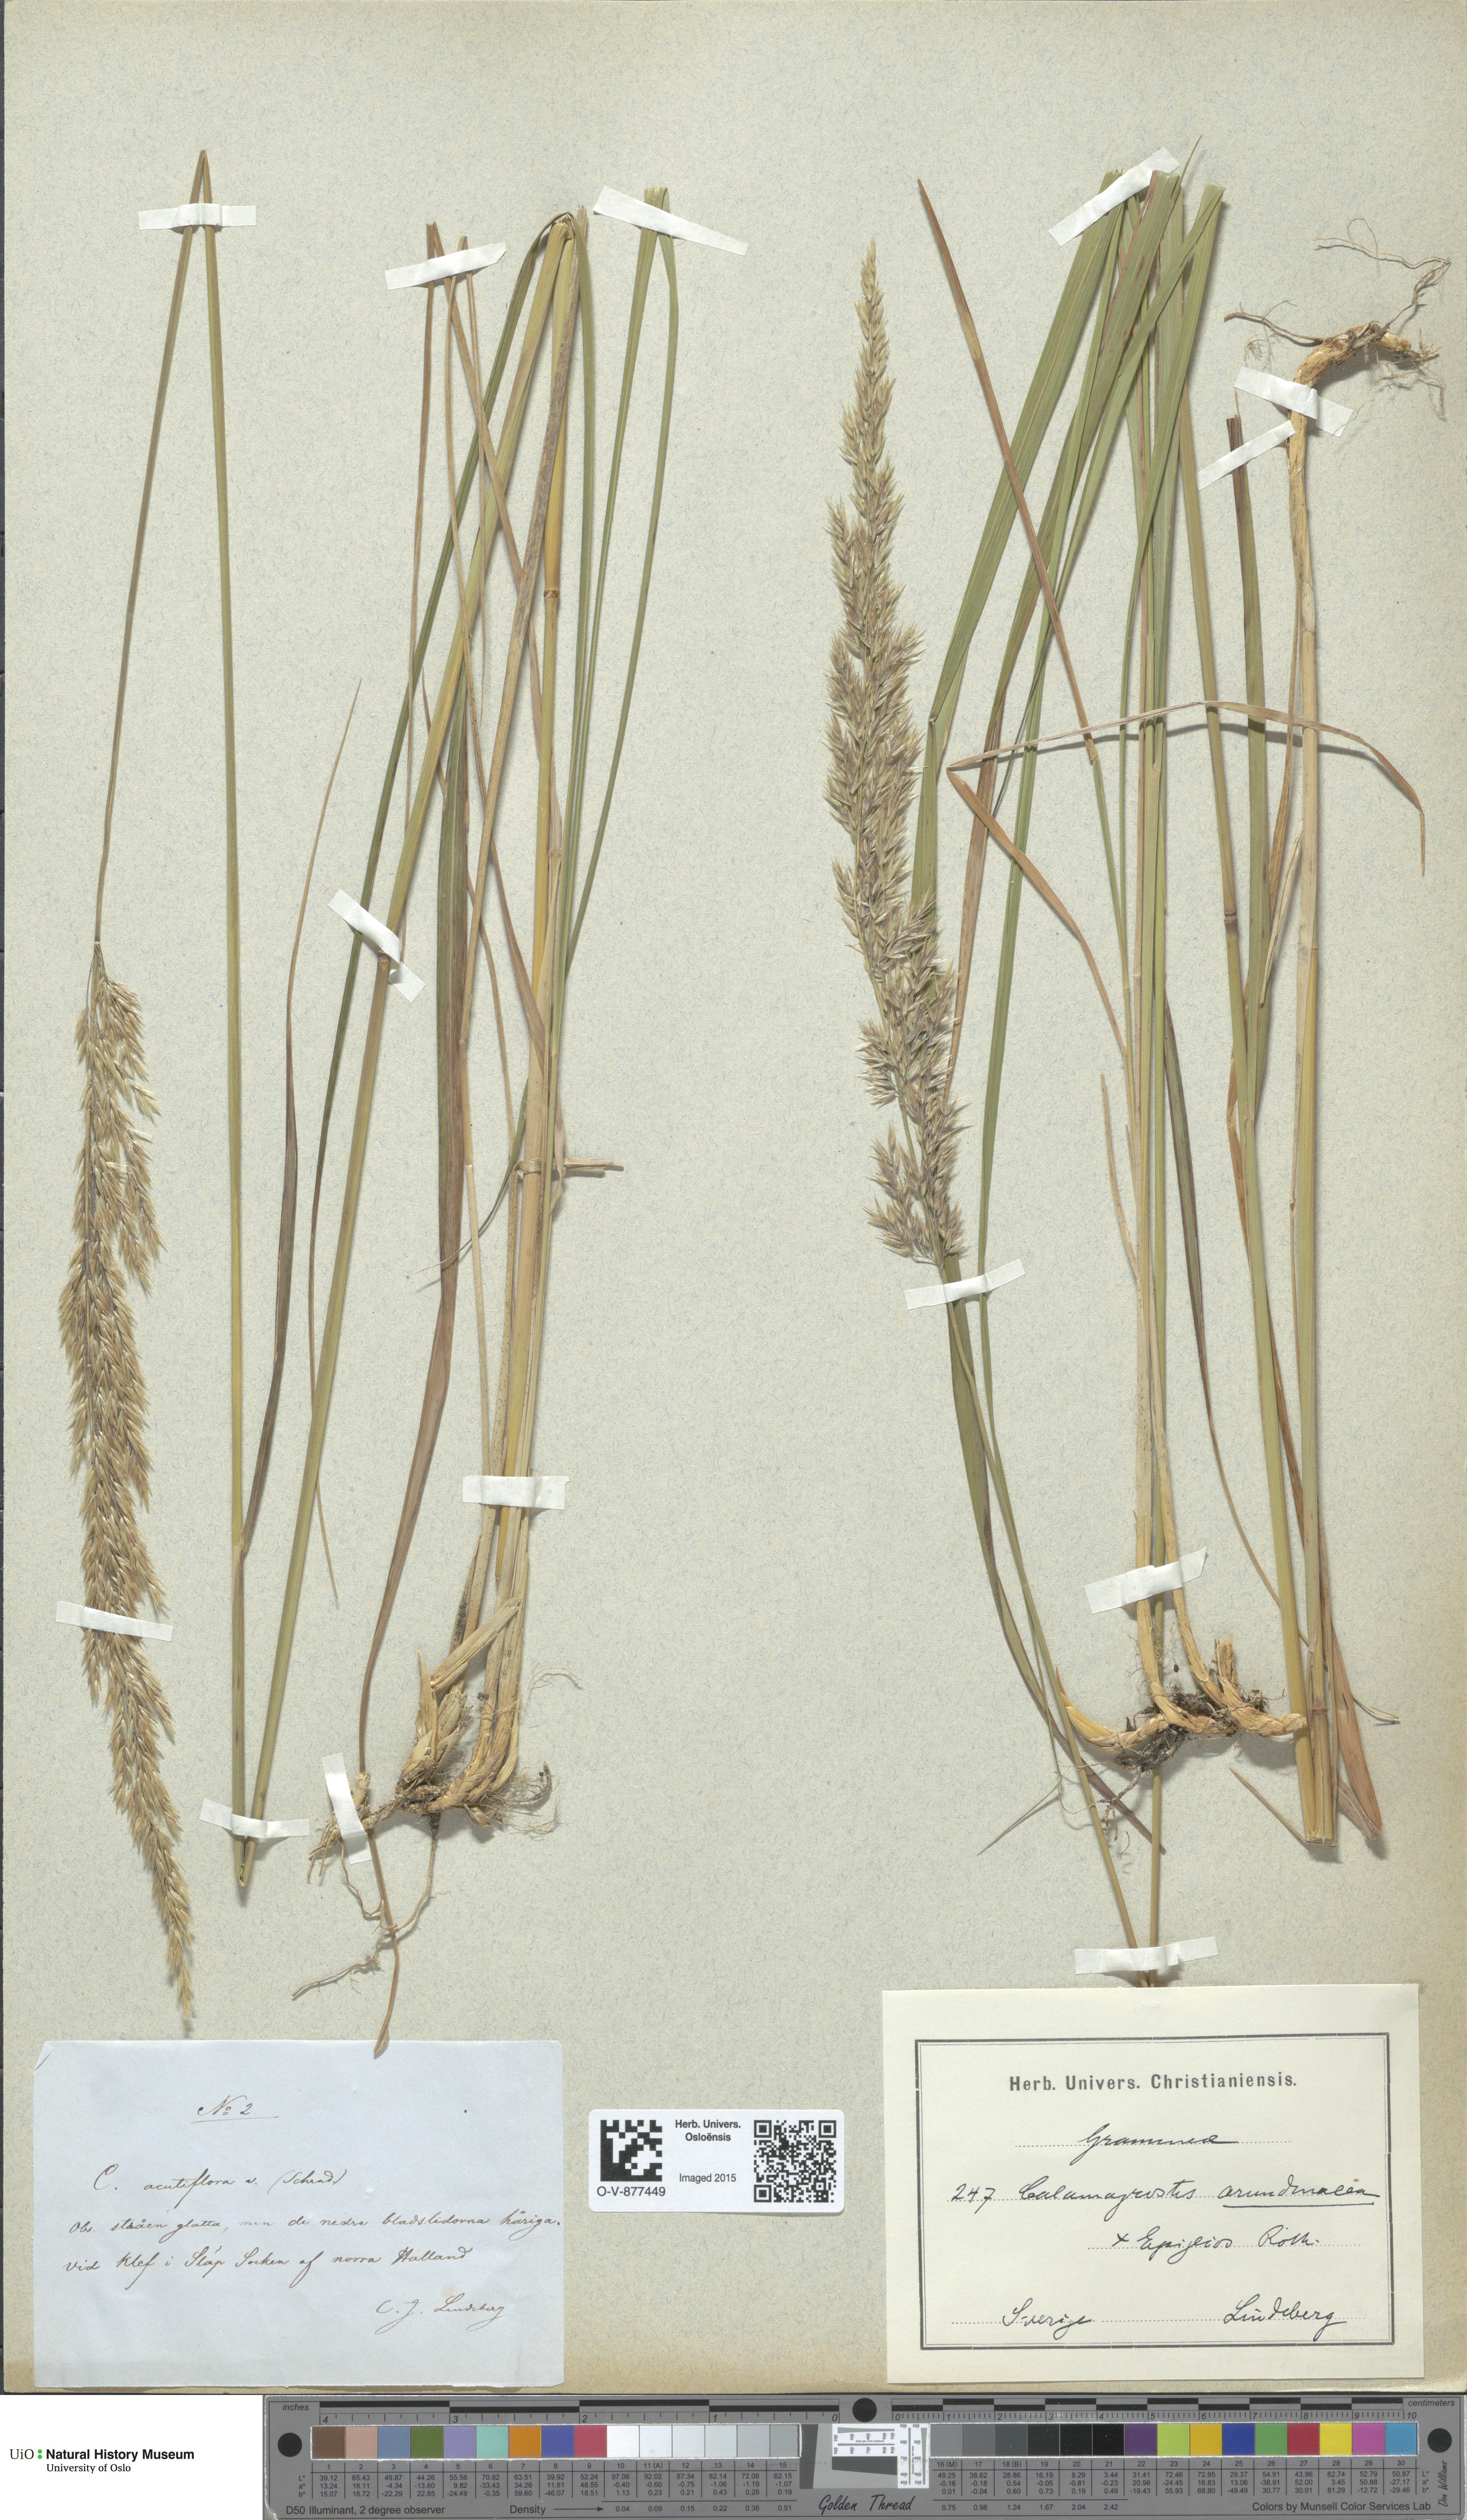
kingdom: Plantae
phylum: Tracheophyta
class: Liliopsida
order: Poales
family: Poaceae
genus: Calamagrostis
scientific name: Calamagrostis
